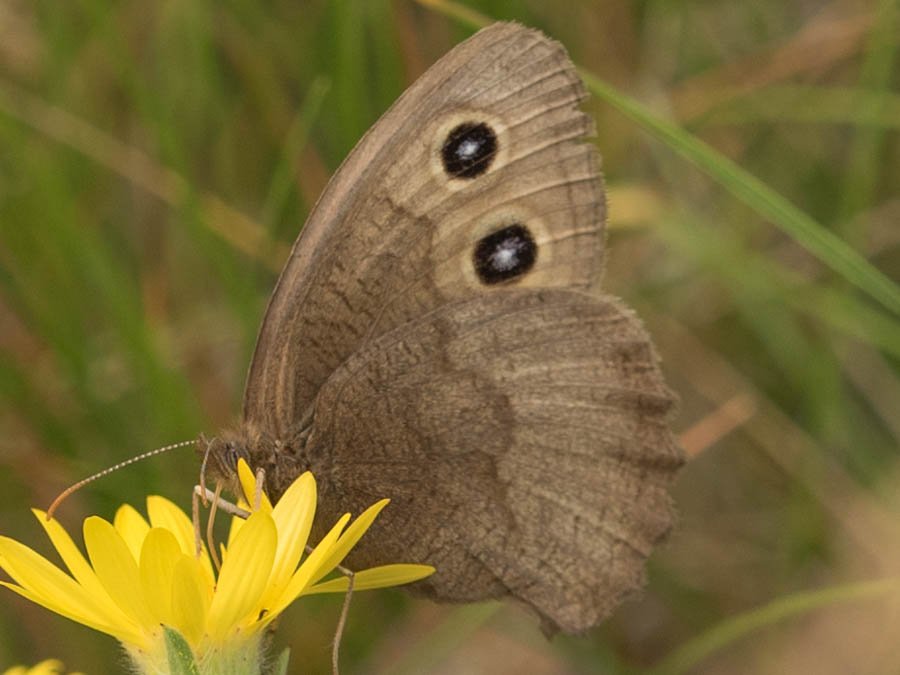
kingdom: Animalia
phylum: Arthropoda
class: Insecta
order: Lepidoptera
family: Nymphalidae
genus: Cercyonis
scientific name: Cercyonis pegala
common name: Common Wood-Nymph
